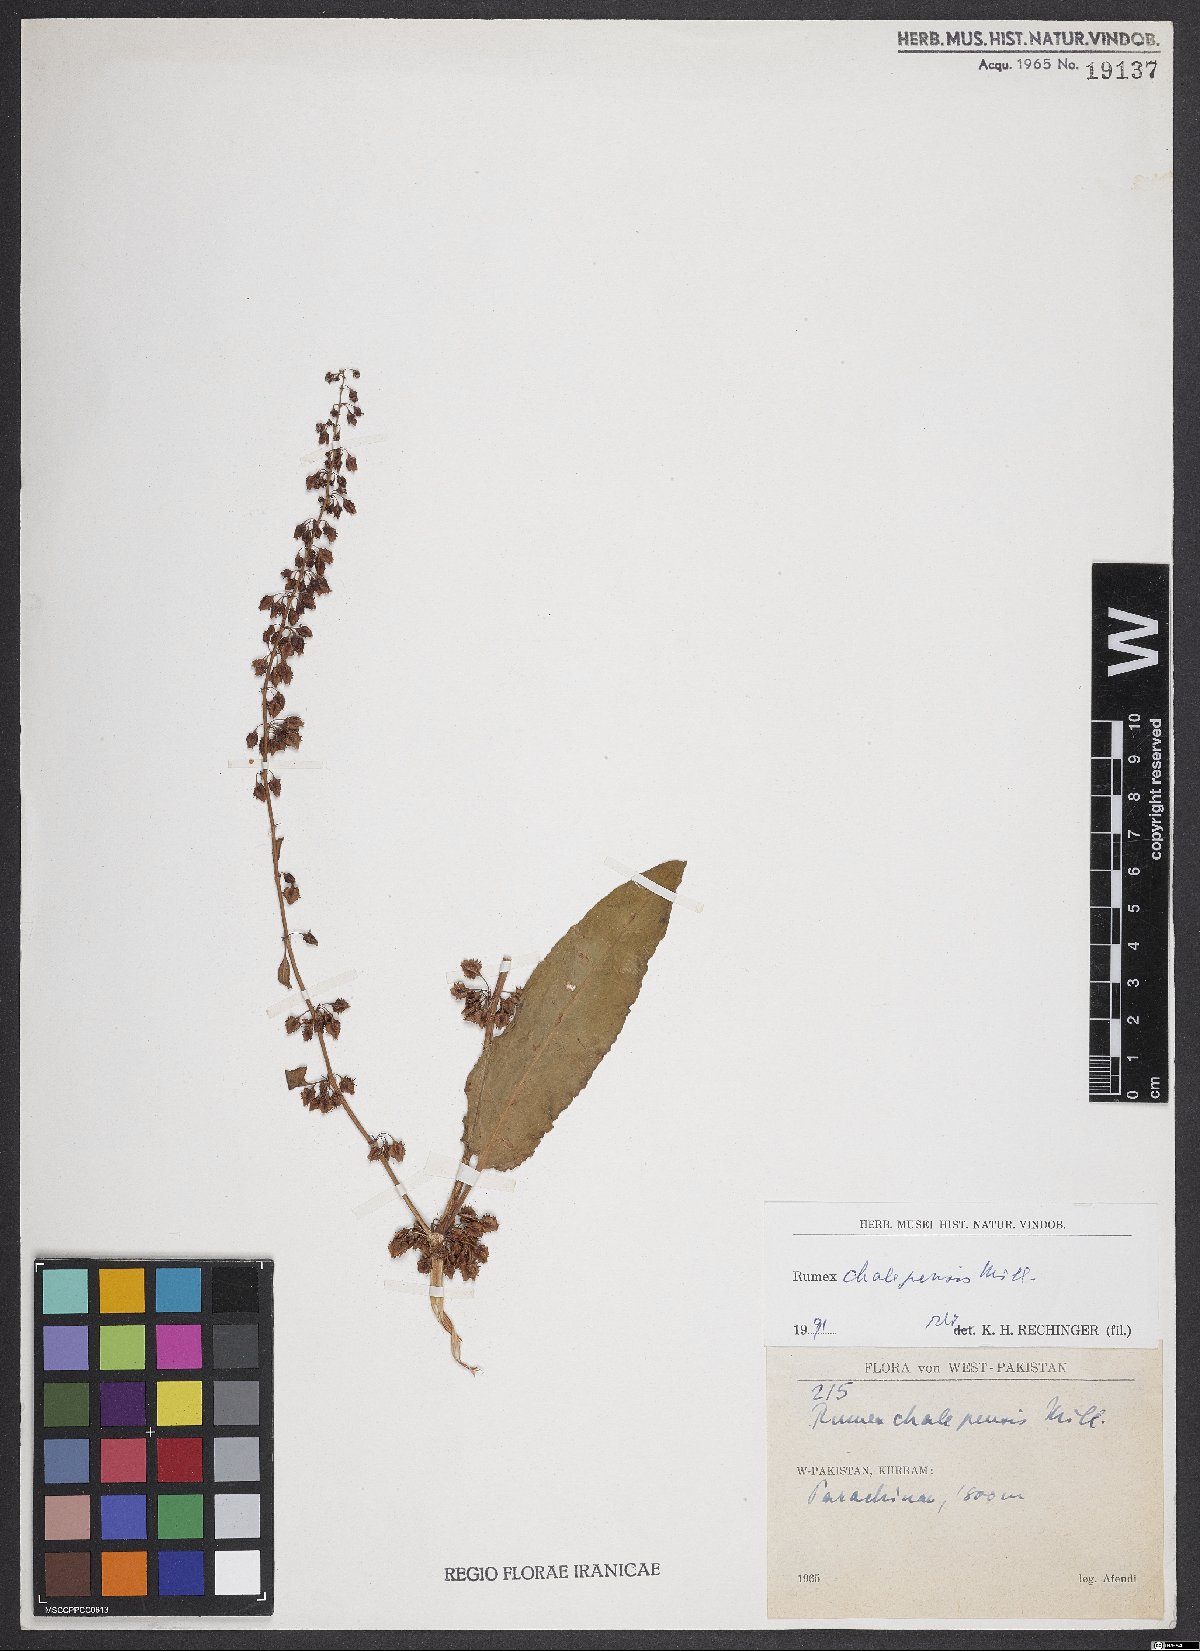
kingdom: Plantae
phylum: Tracheophyta
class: Magnoliopsida
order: Caryophyllales
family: Polygonaceae
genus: Rumex
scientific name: Rumex chalepensis
